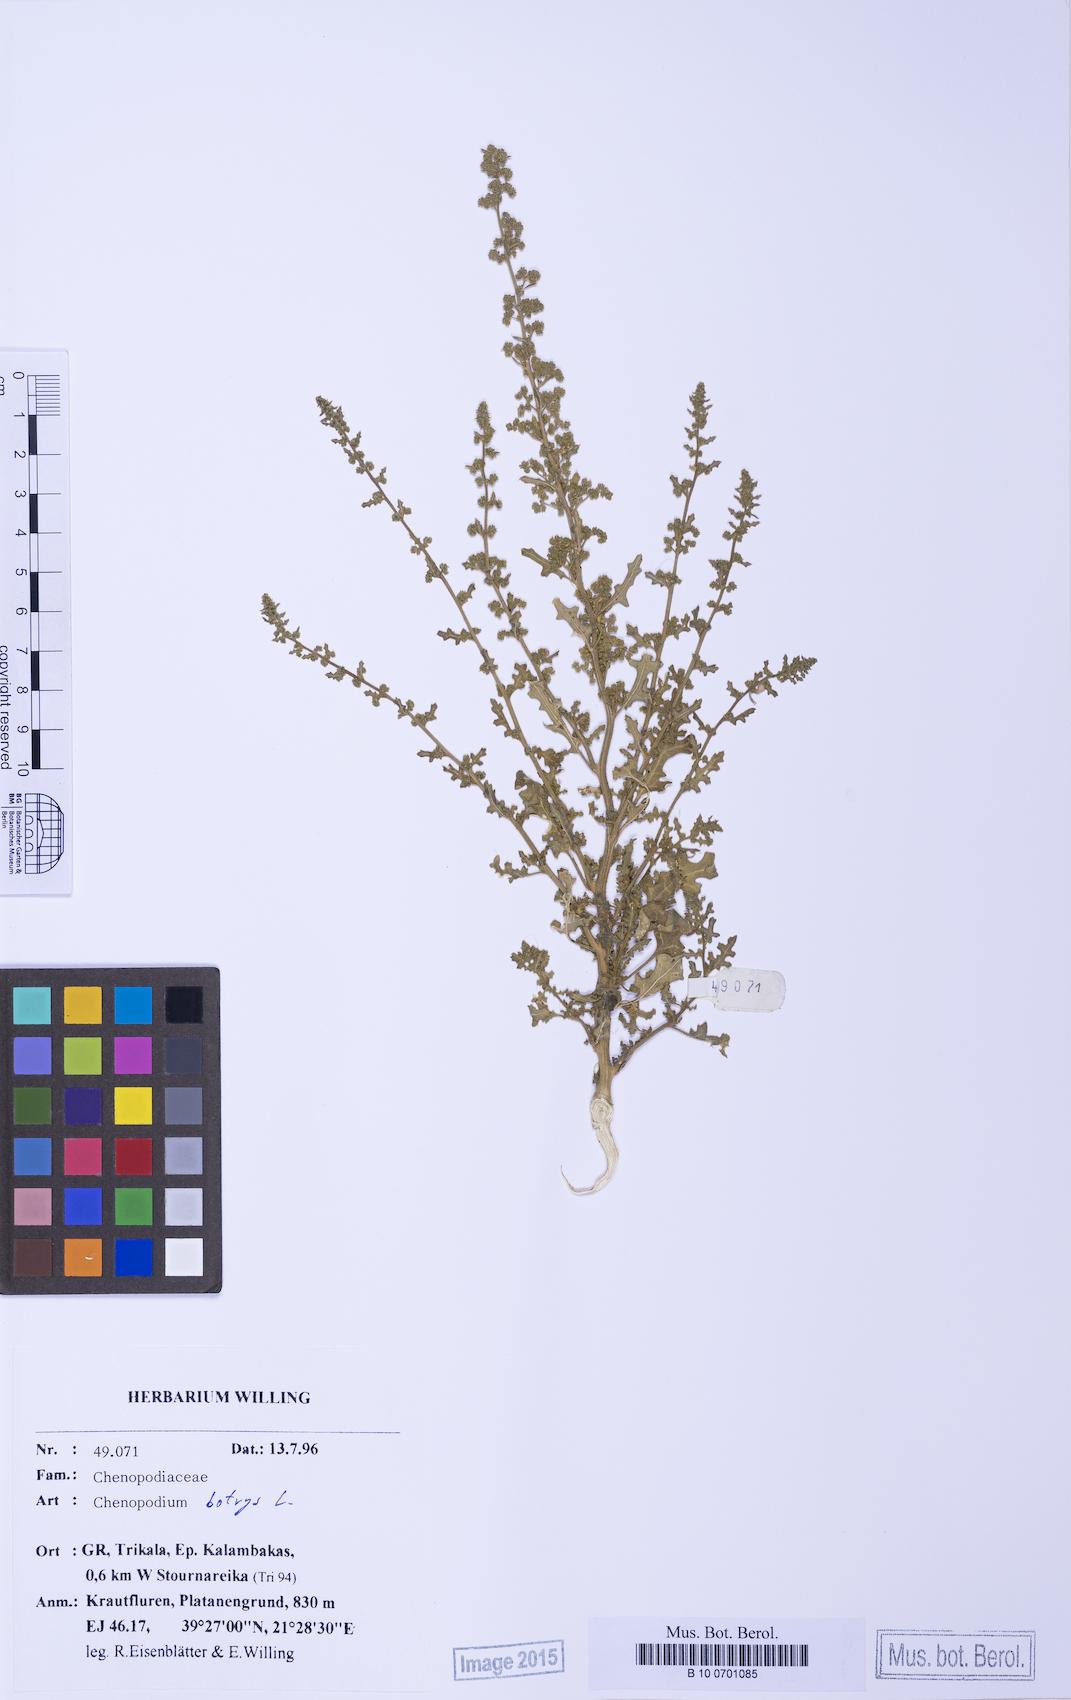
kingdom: Plantae
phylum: Tracheophyta
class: Magnoliopsida
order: Caryophyllales
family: Amaranthaceae
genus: Dysphania
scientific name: Dysphania botrys
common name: Feather-geranium
